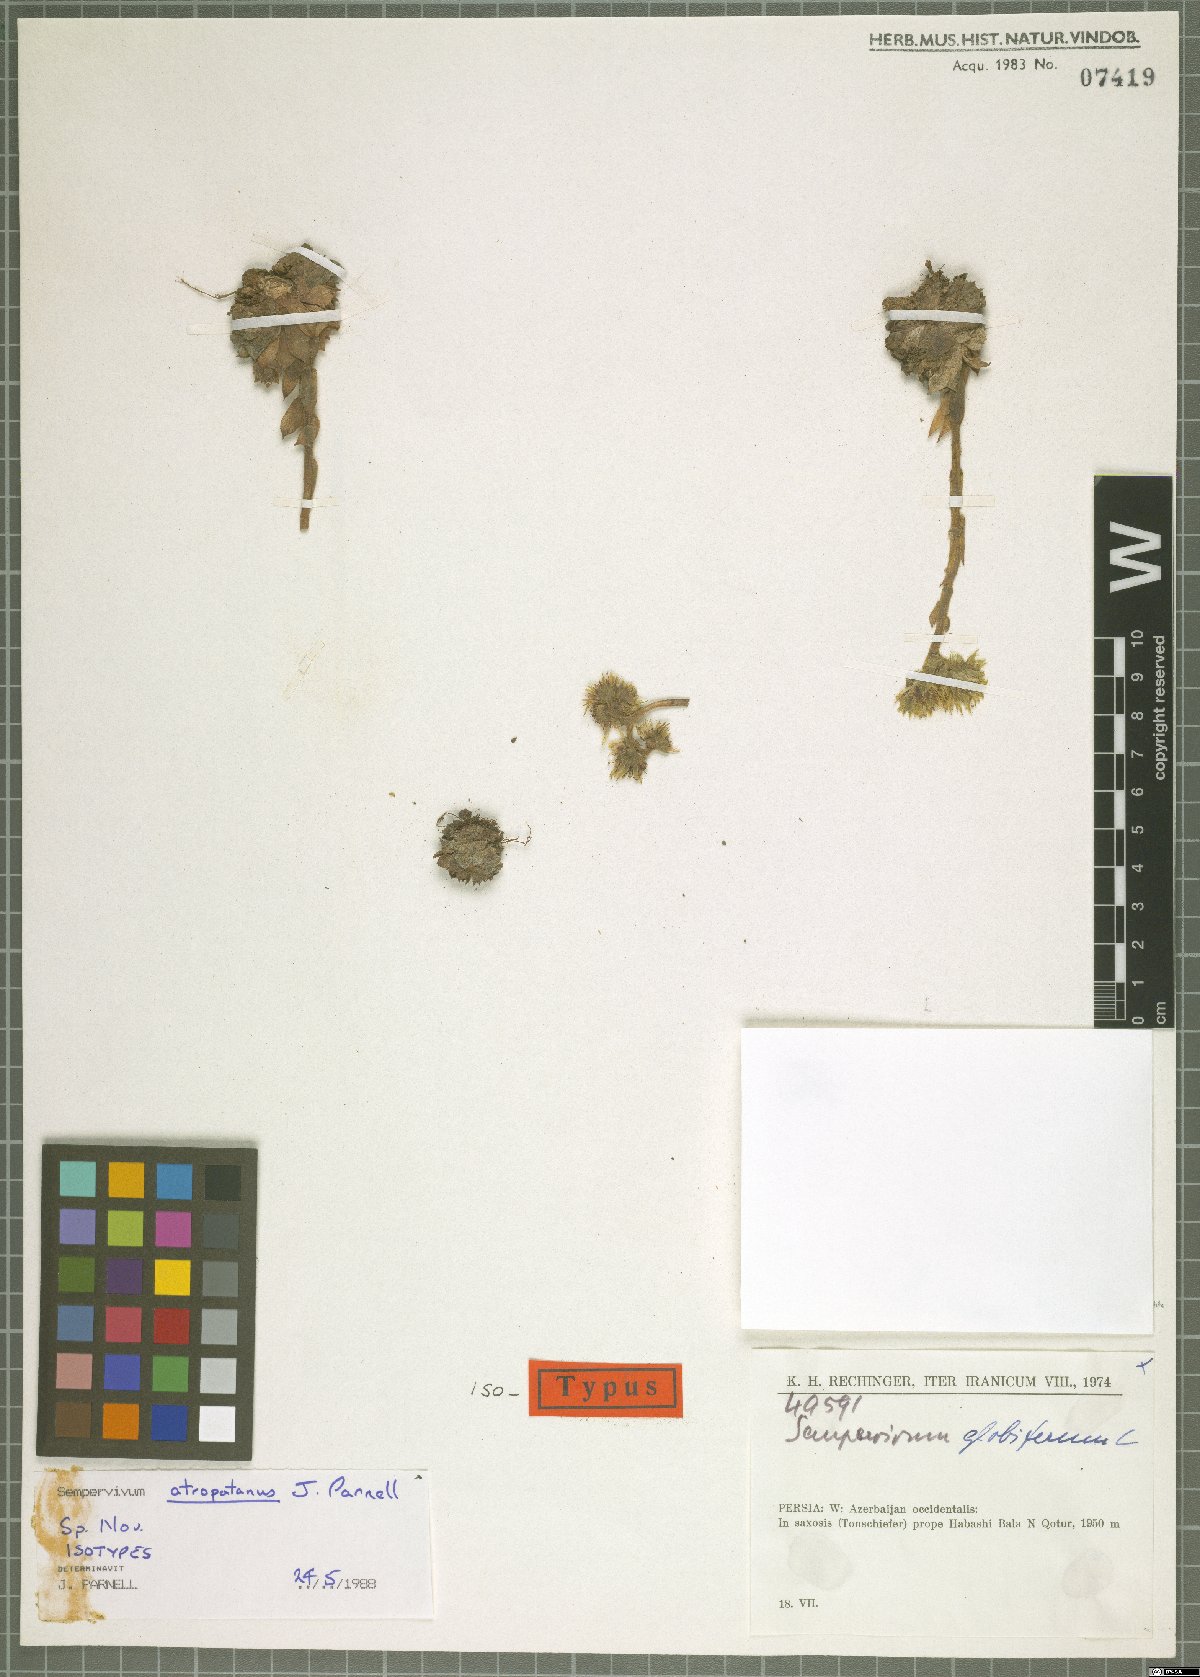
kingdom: Plantae
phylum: Tracheophyta
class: Magnoliopsida
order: Saxifragales
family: Crassulaceae
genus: Sempervivum
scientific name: Sempervivum atropatanum
